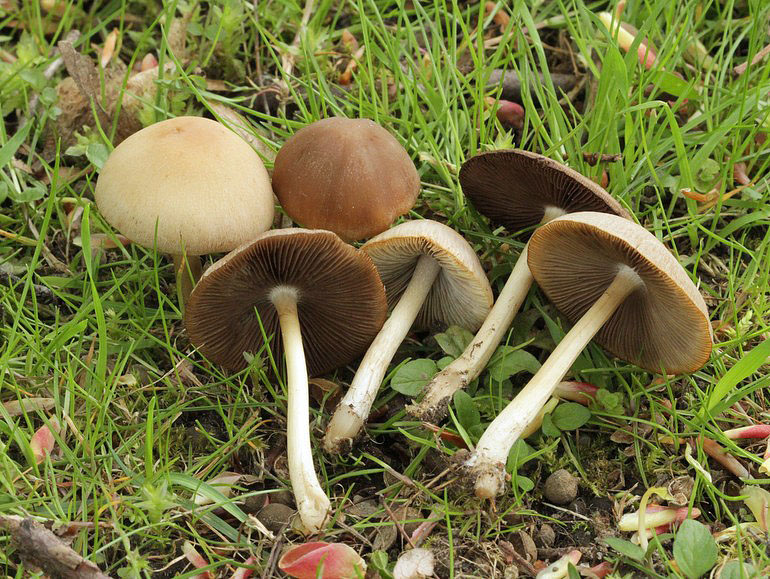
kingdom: Fungi
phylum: Basidiomycota
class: Agaricomycetes
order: Agaricales
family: Psathyrellaceae
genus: Psathyrella
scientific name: Psathyrella spadiceogrisea
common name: gråbrun mørkhat
